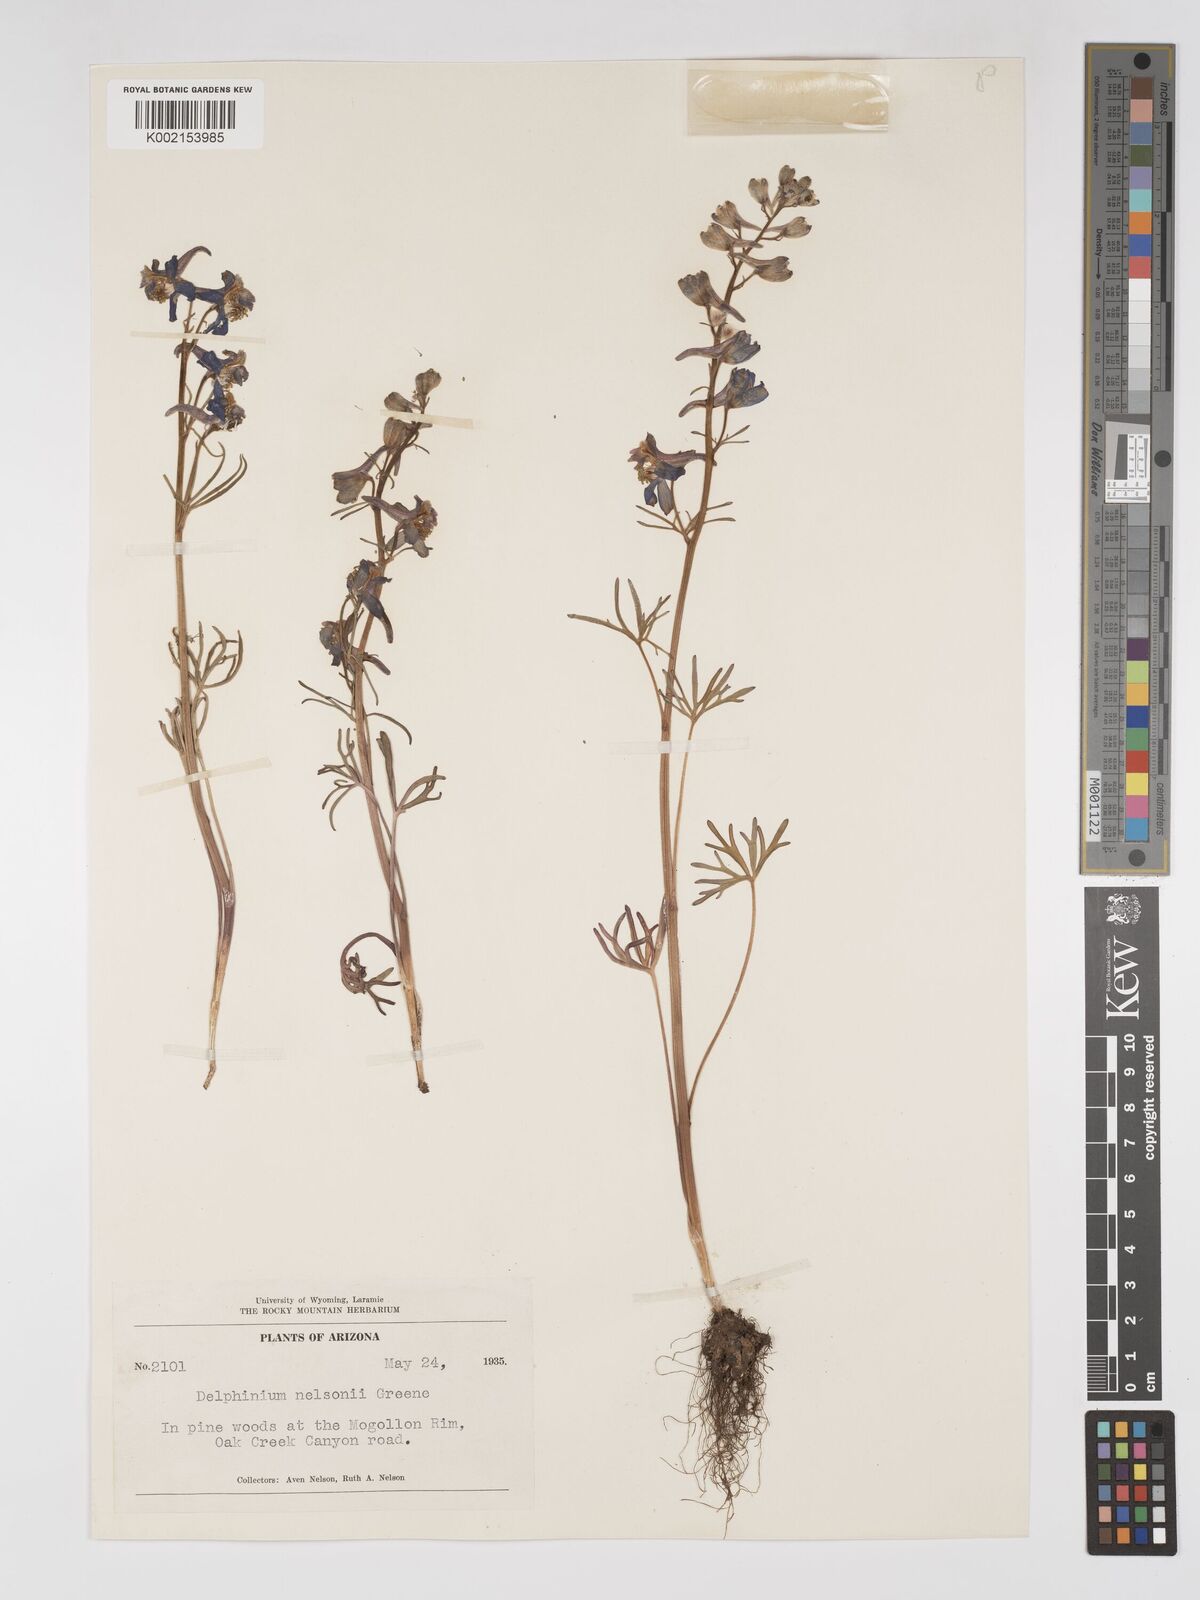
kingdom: Plantae
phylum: Tracheophyta
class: Magnoliopsida
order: Ranunculales
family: Ranunculaceae
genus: Delphinium
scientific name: Delphinium nuttallianum
